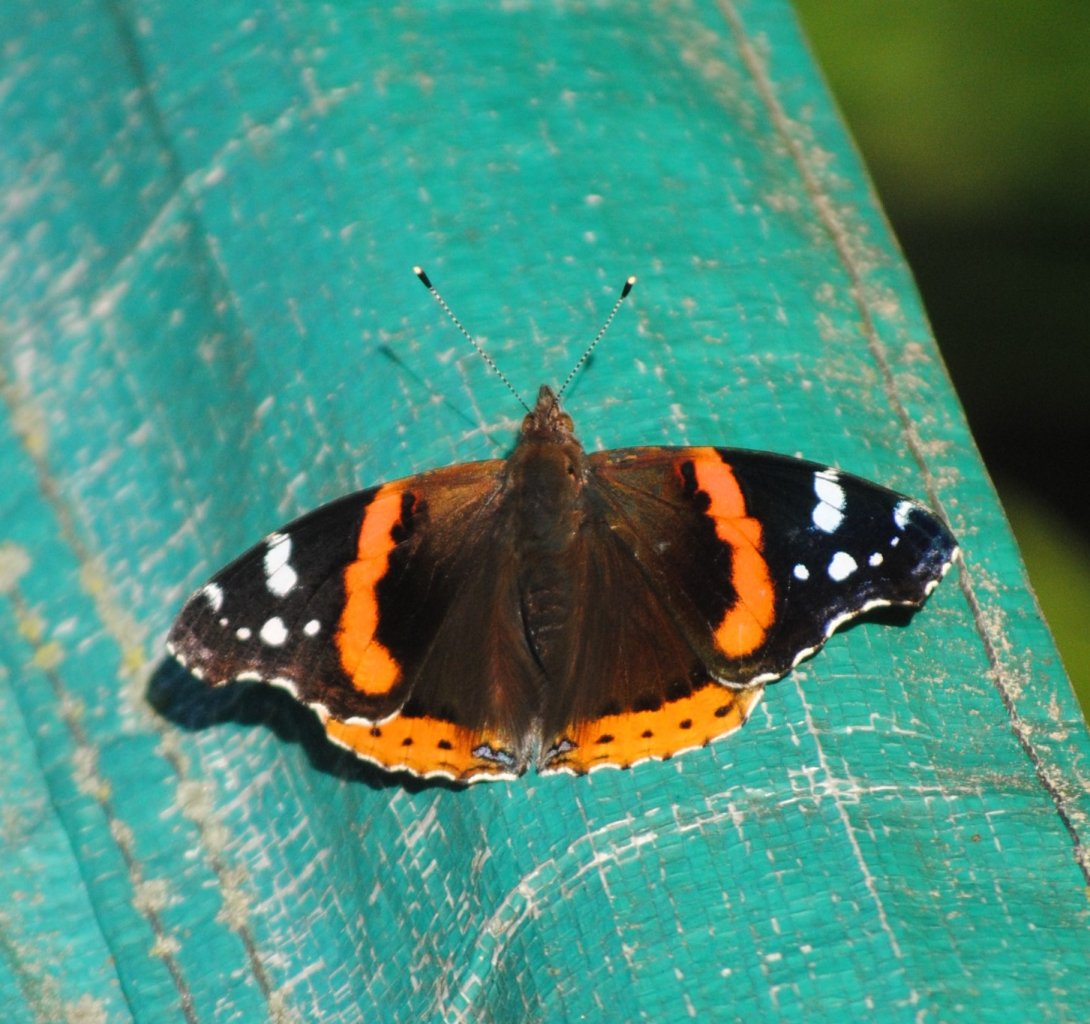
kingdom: Animalia
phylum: Arthropoda
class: Insecta
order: Lepidoptera
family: Nymphalidae
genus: Vanessa
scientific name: Vanessa atalanta
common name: Red Admiral
